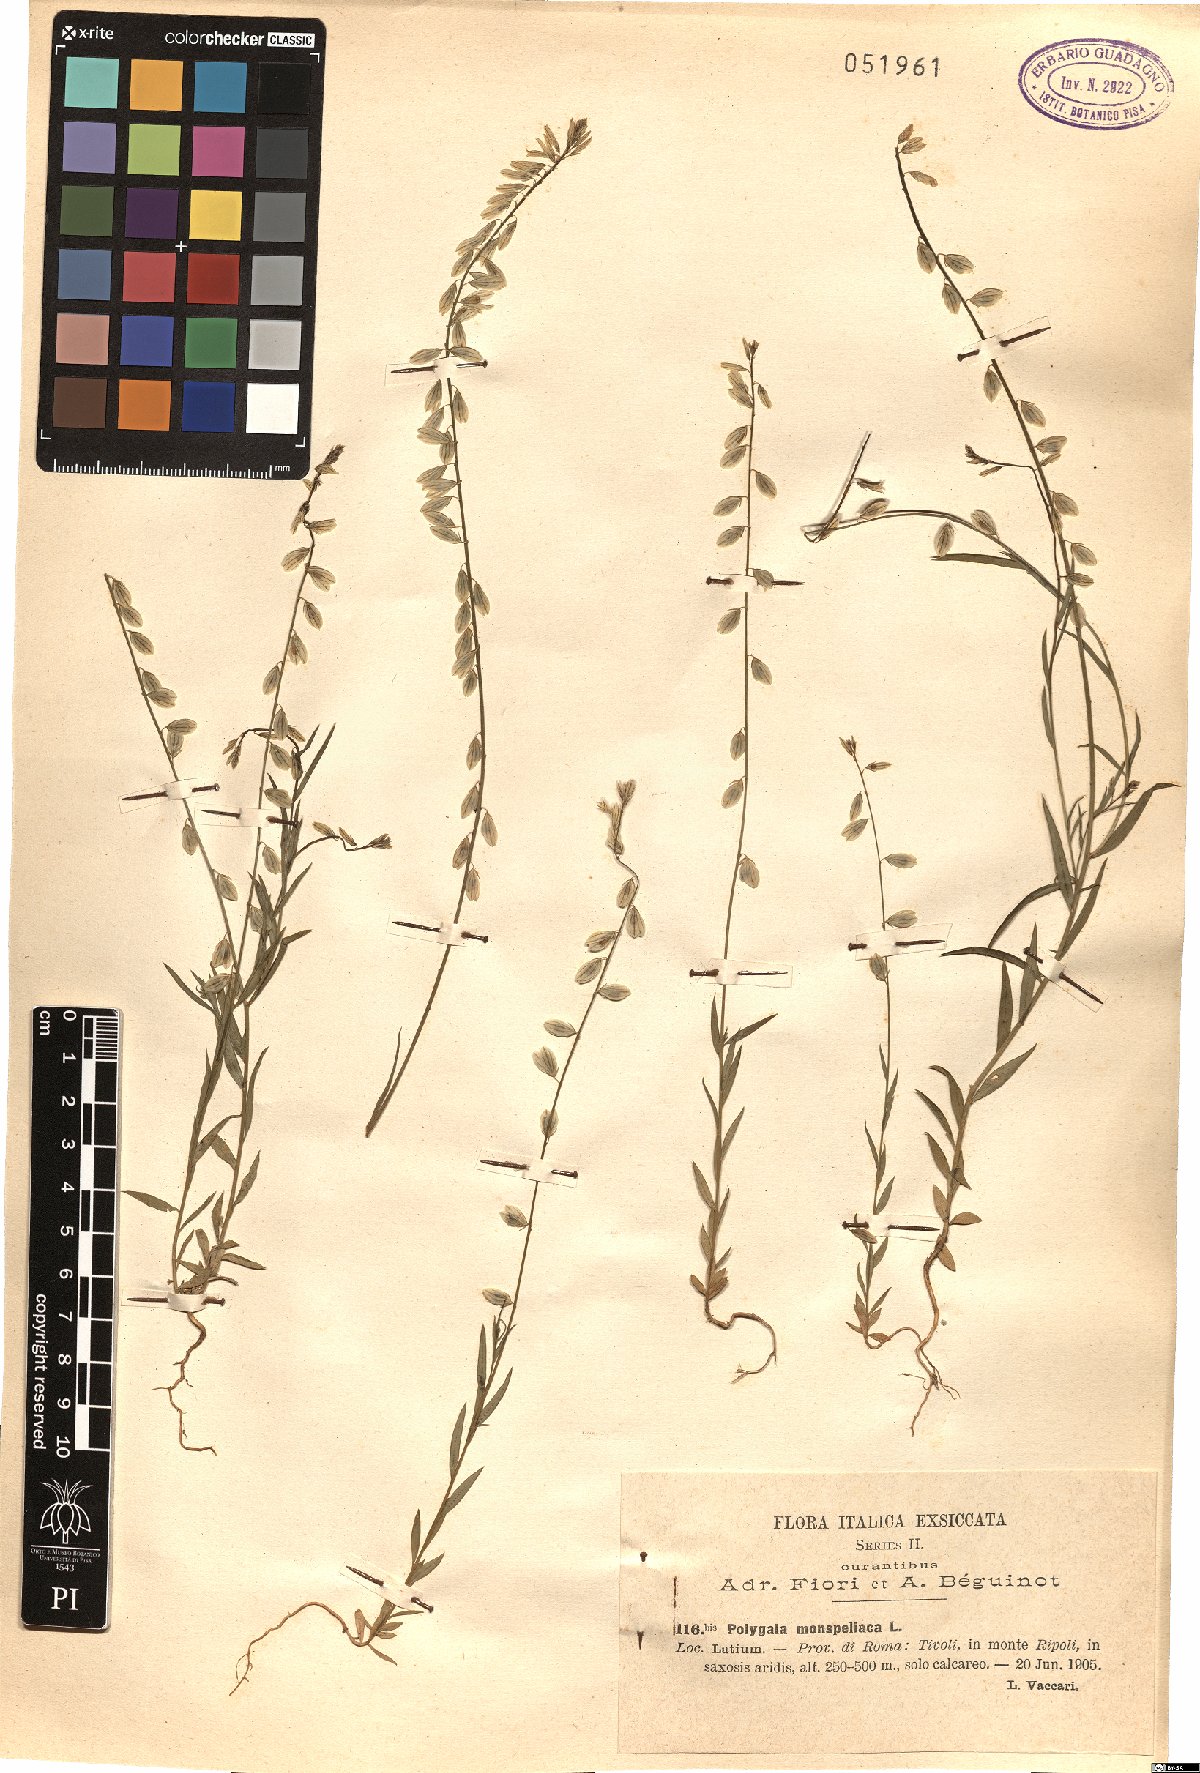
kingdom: Plantae
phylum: Tracheophyta
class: Magnoliopsida
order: Fabales
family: Polygalaceae
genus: Polygala
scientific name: Polygala monspeliaca
